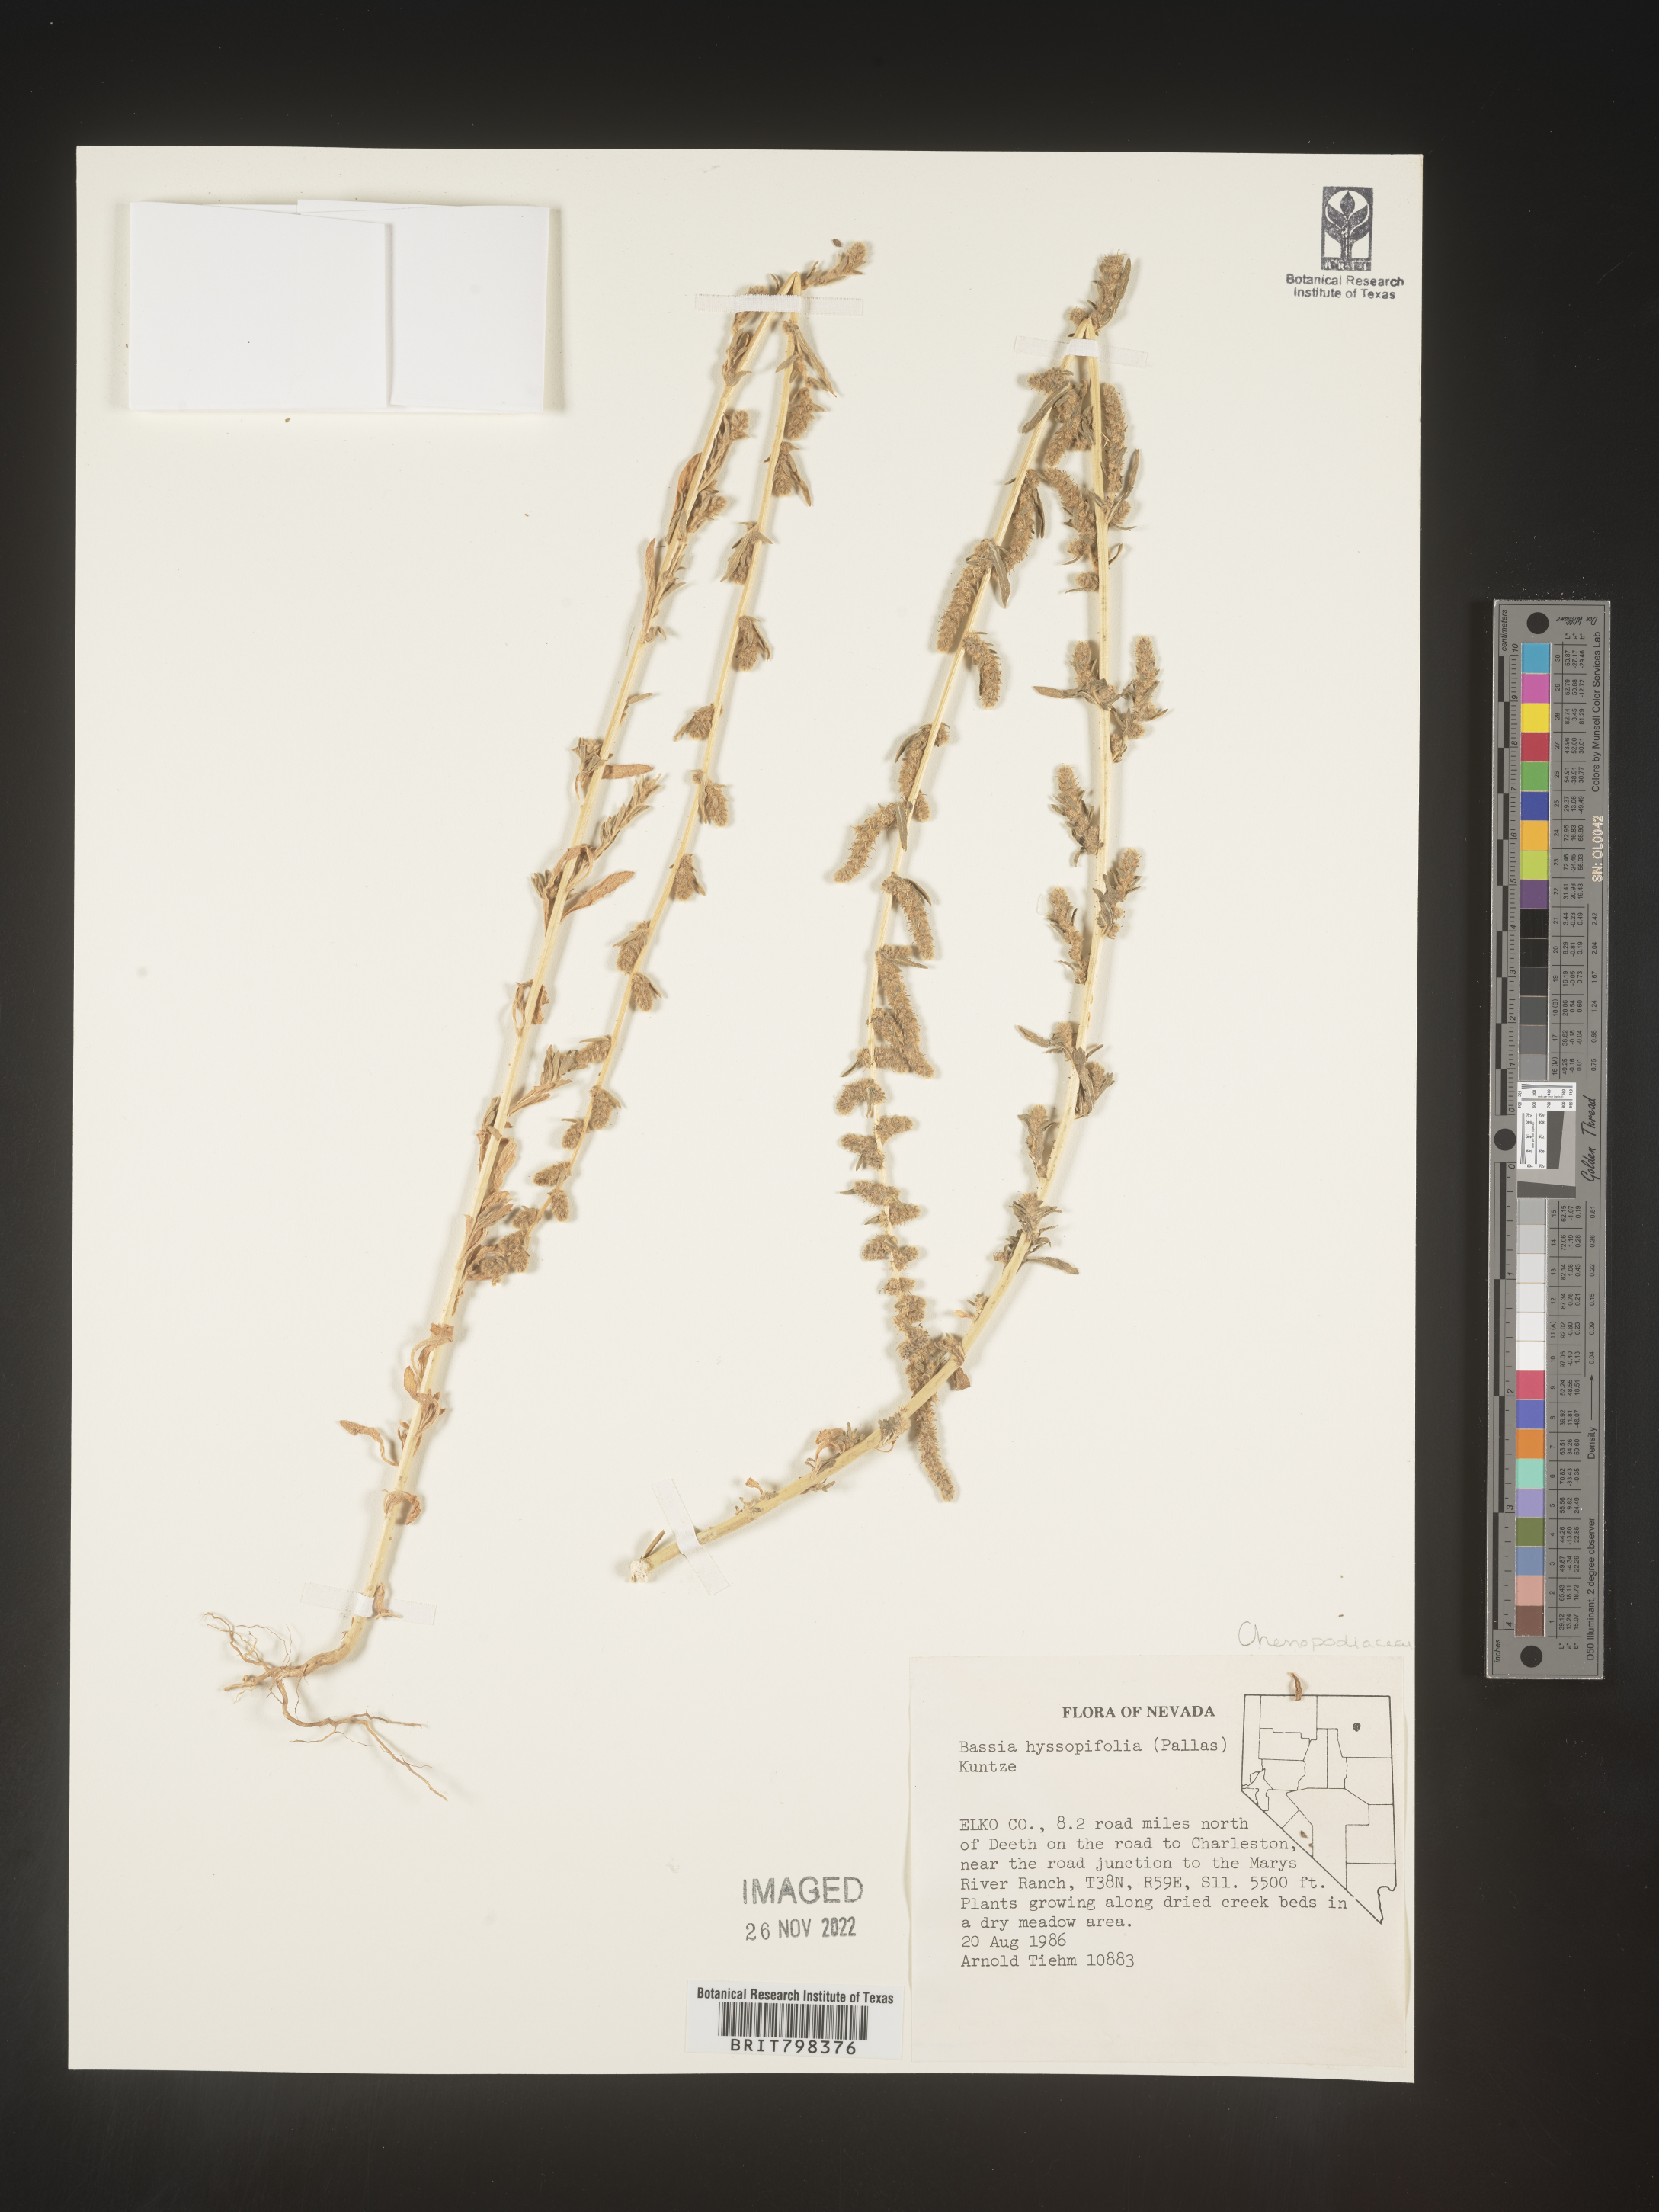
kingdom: Plantae
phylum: Tracheophyta
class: Magnoliopsida
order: Caryophyllales
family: Amaranthaceae
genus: Bassia
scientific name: Bassia scoparia
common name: Belvedere
